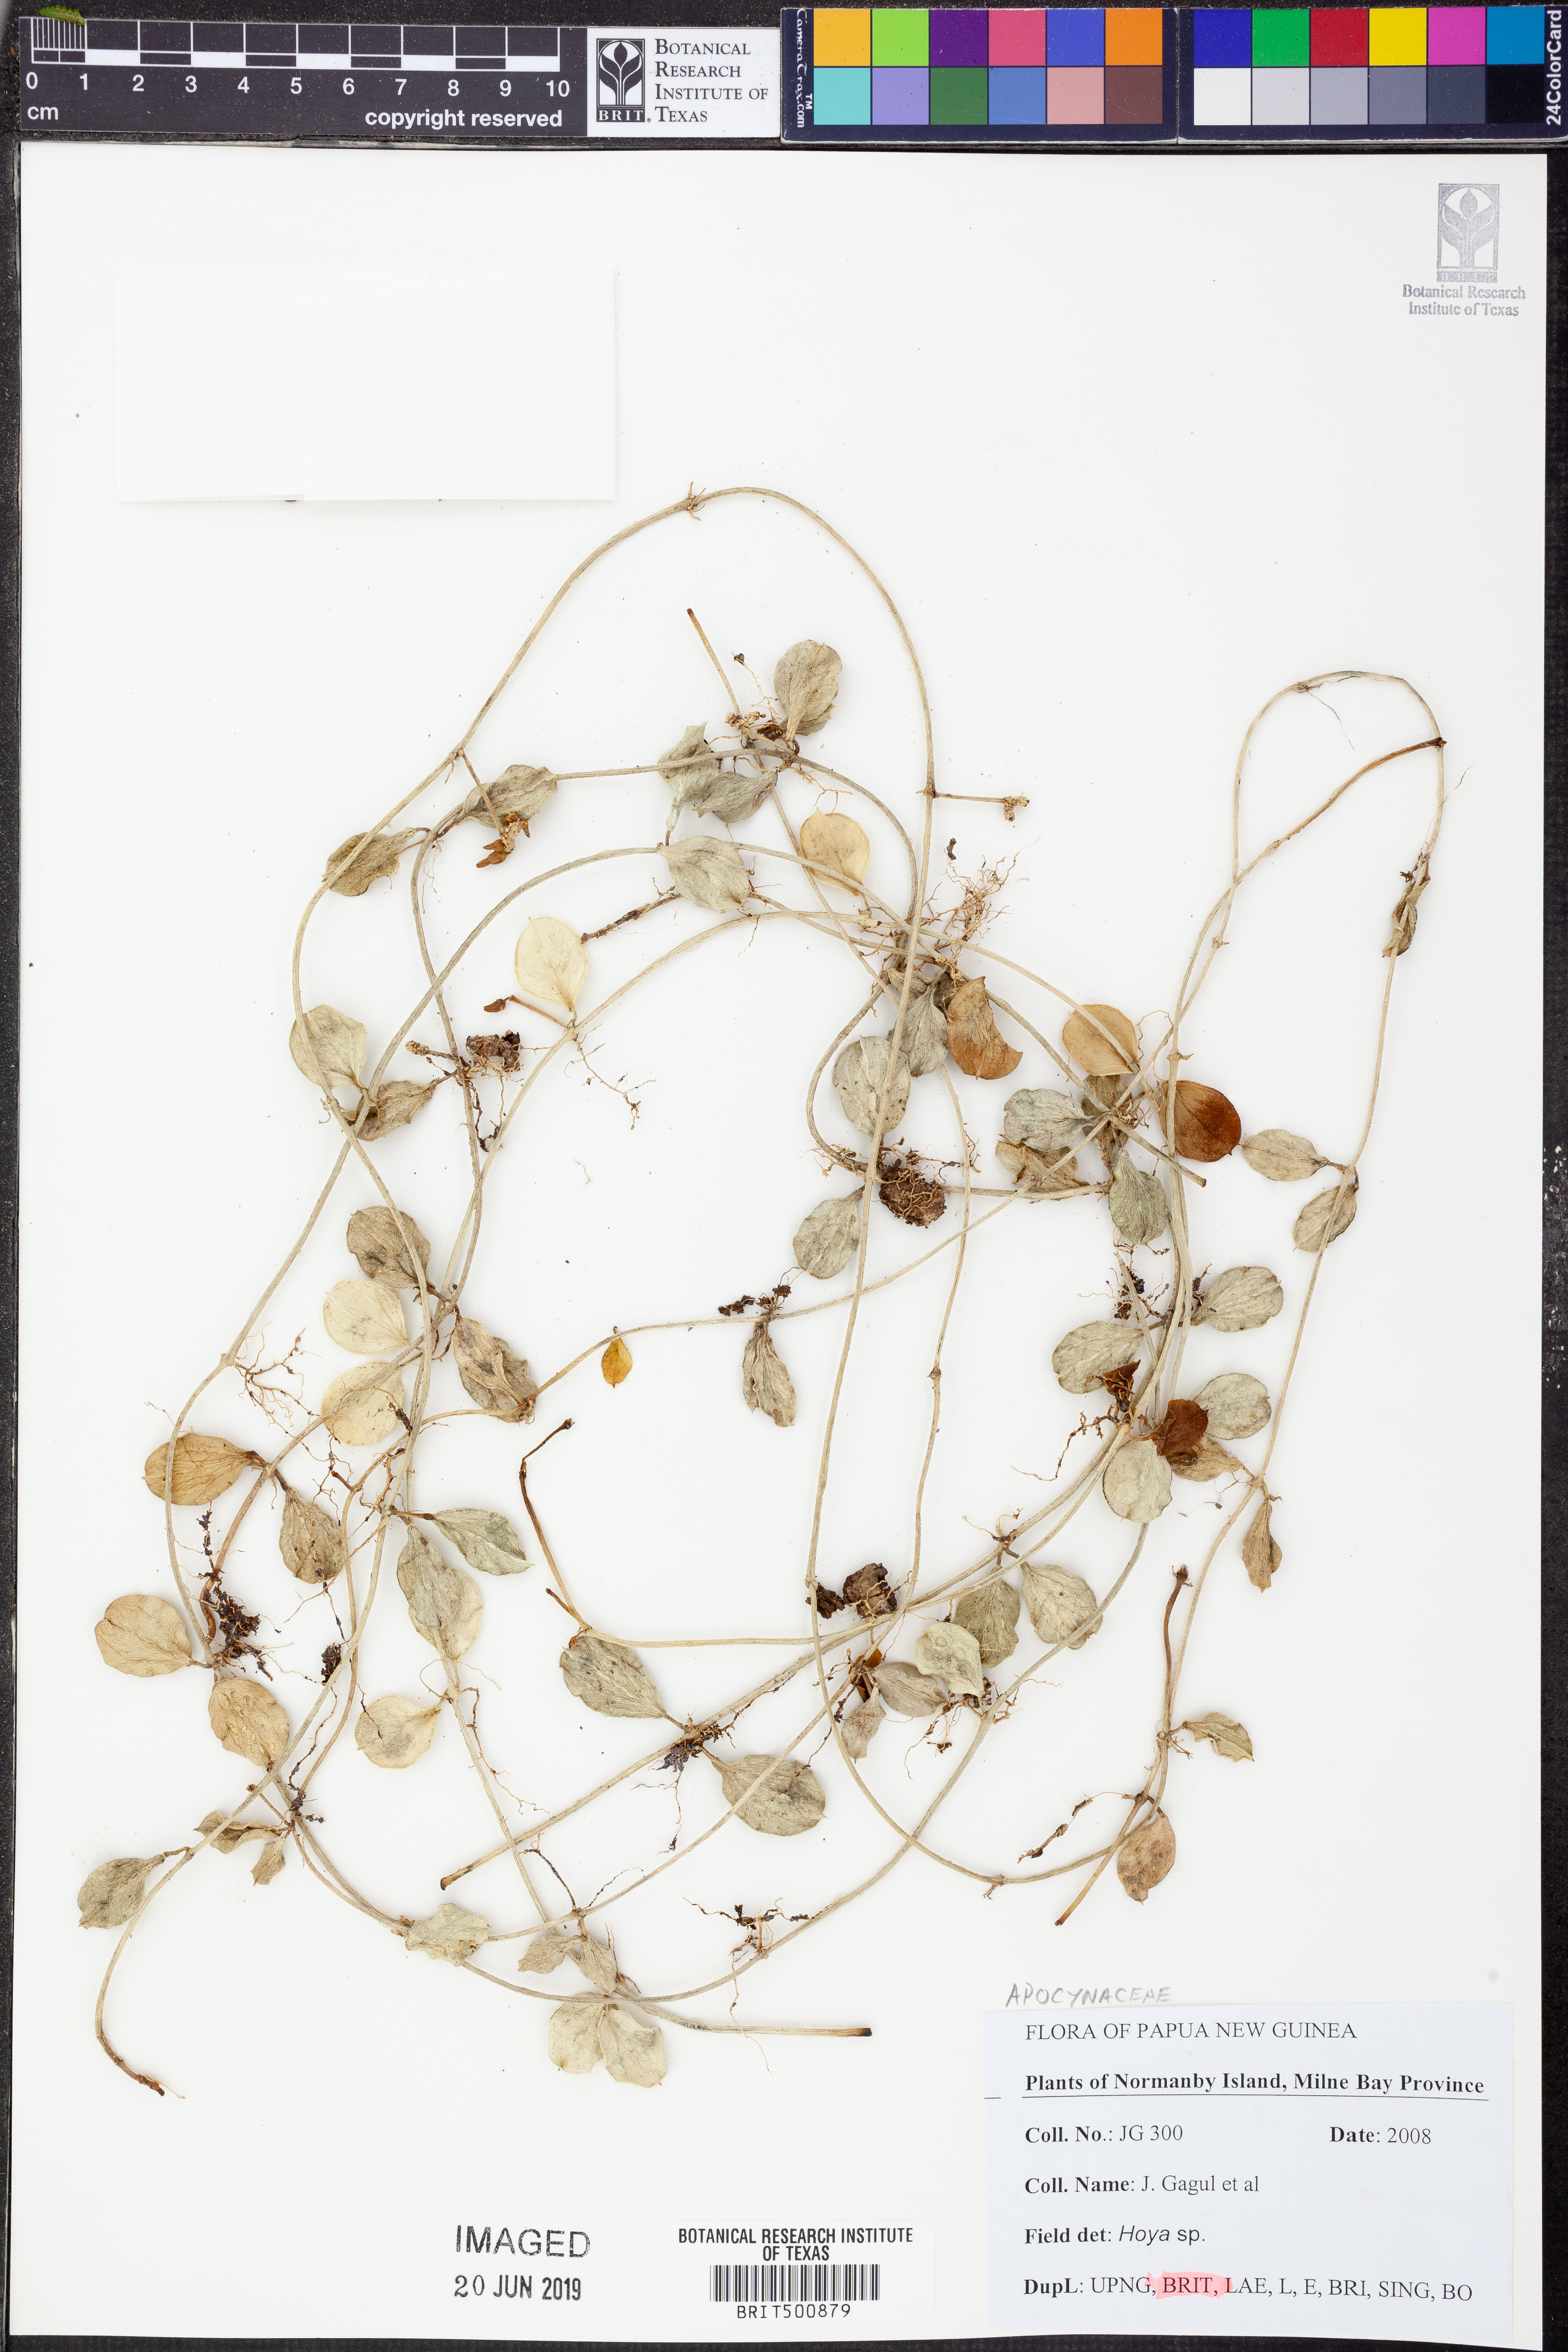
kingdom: Plantae
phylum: Tracheophyta
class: Magnoliopsida
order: Gentianales
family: Apocynaceae
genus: Hoya
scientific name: Hoya
